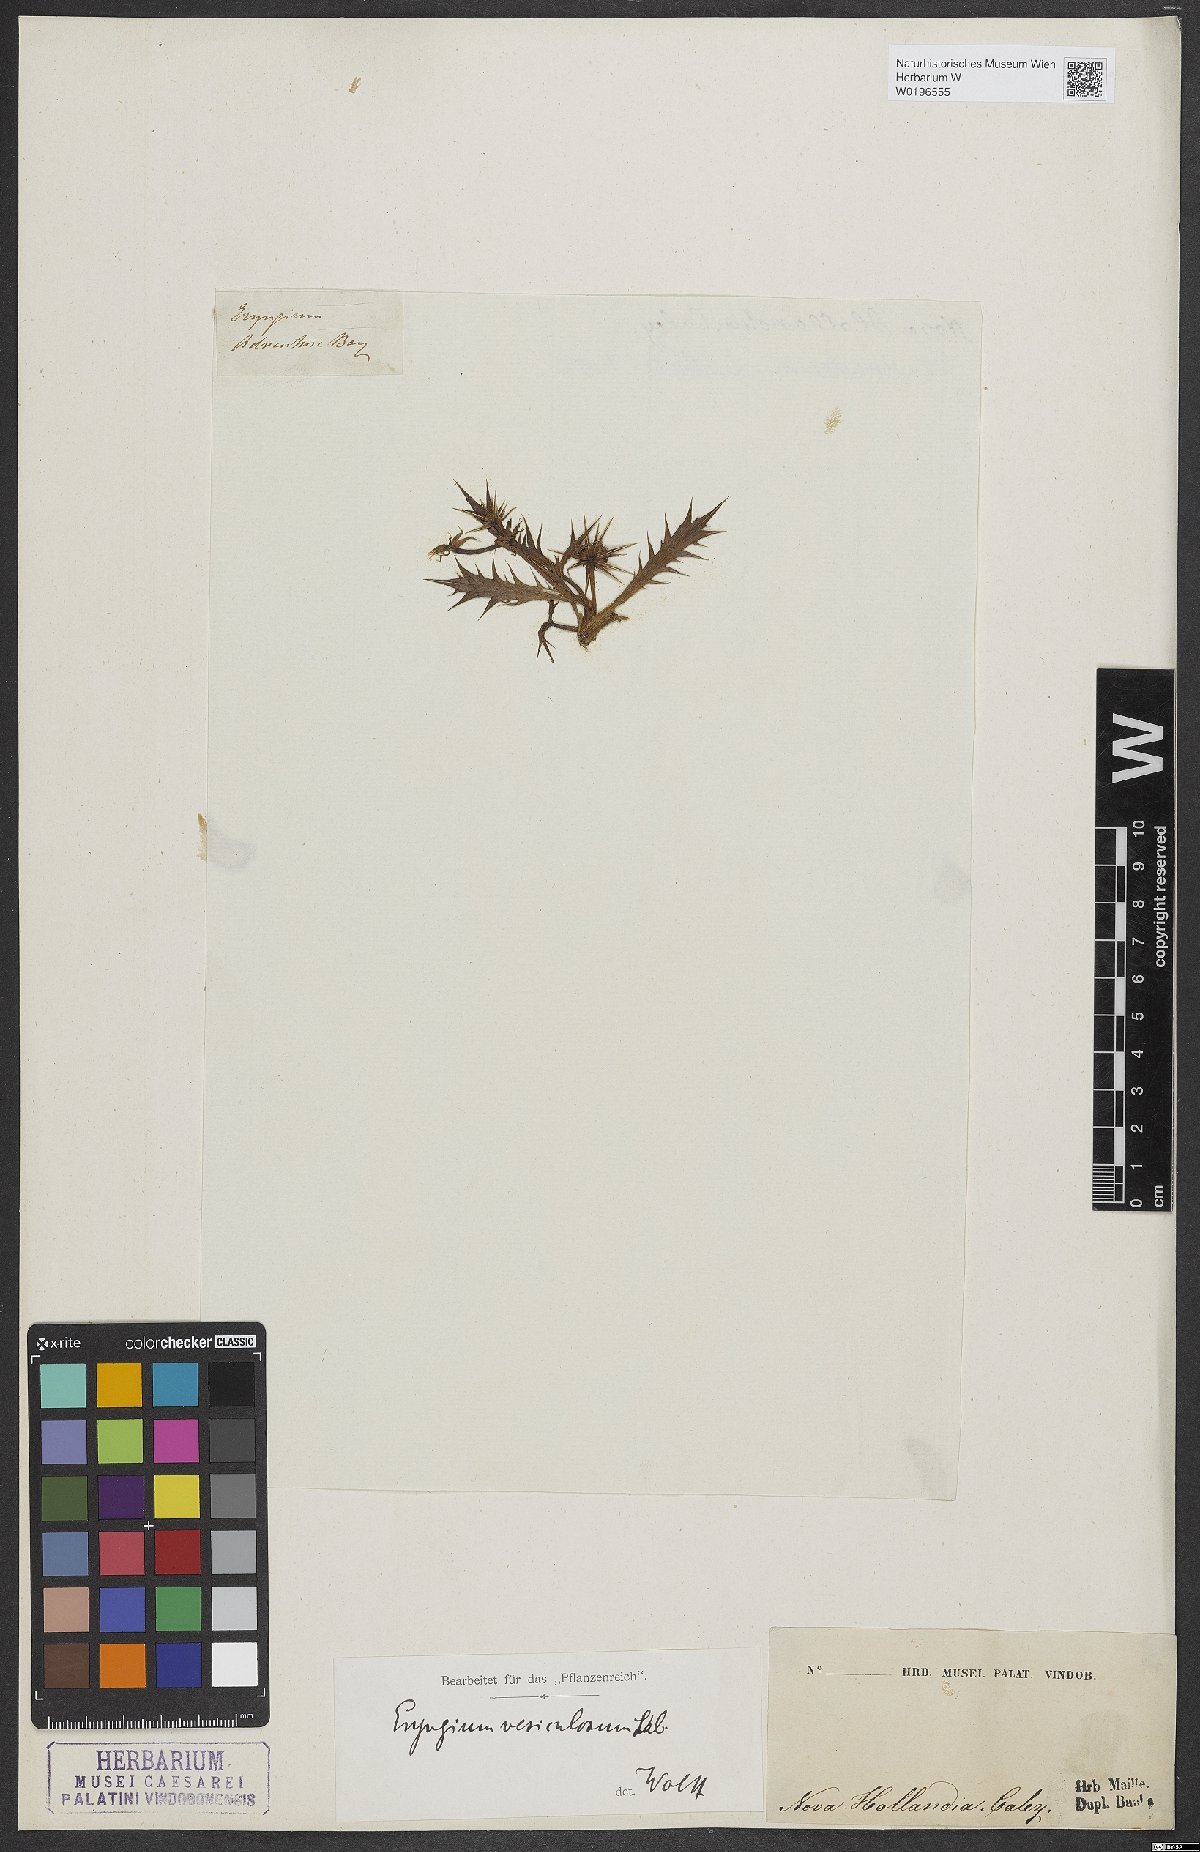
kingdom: Plantae
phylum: Tracheophyta
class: Magnoliopsida
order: Apiales
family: Apiaceae
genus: Eryngium
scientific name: Eryngium vesiculosum
